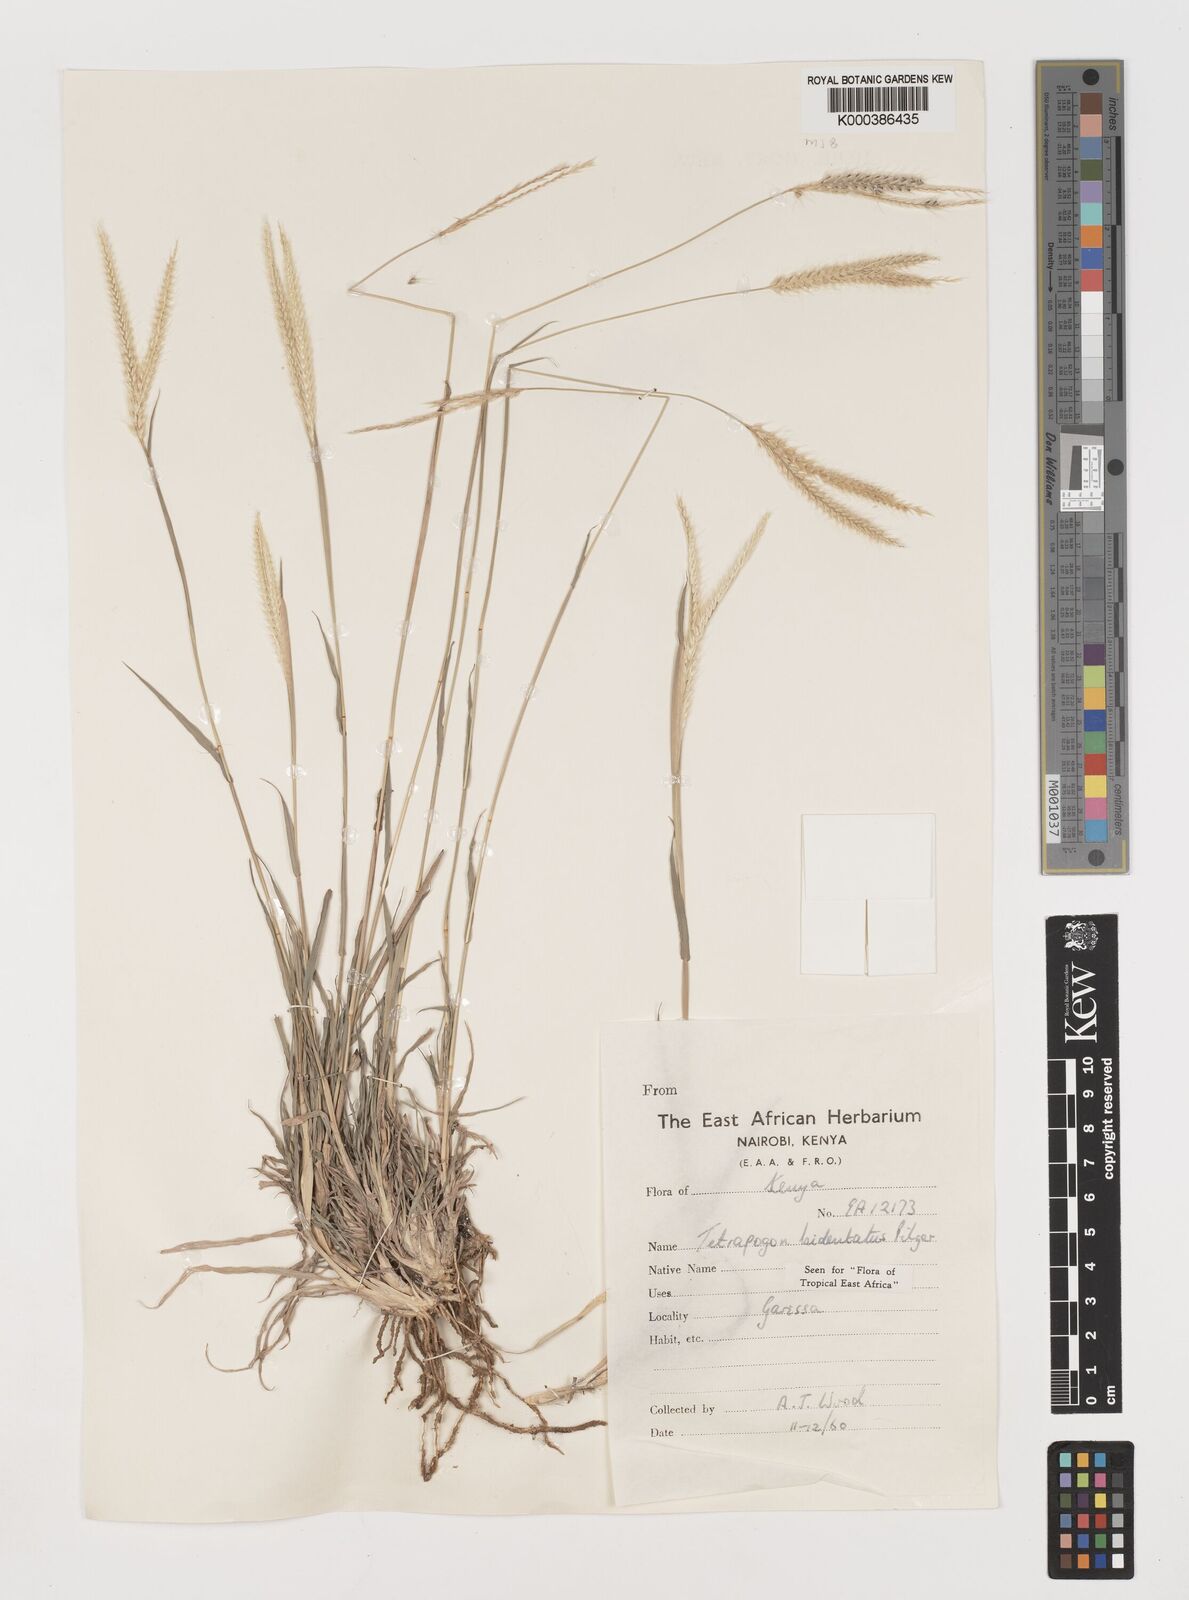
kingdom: Plantae
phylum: Tracheophyta
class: Liliopsida
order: Poales
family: Poaceae
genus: Tetrapogon
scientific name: Tetrapogon bidentatus
